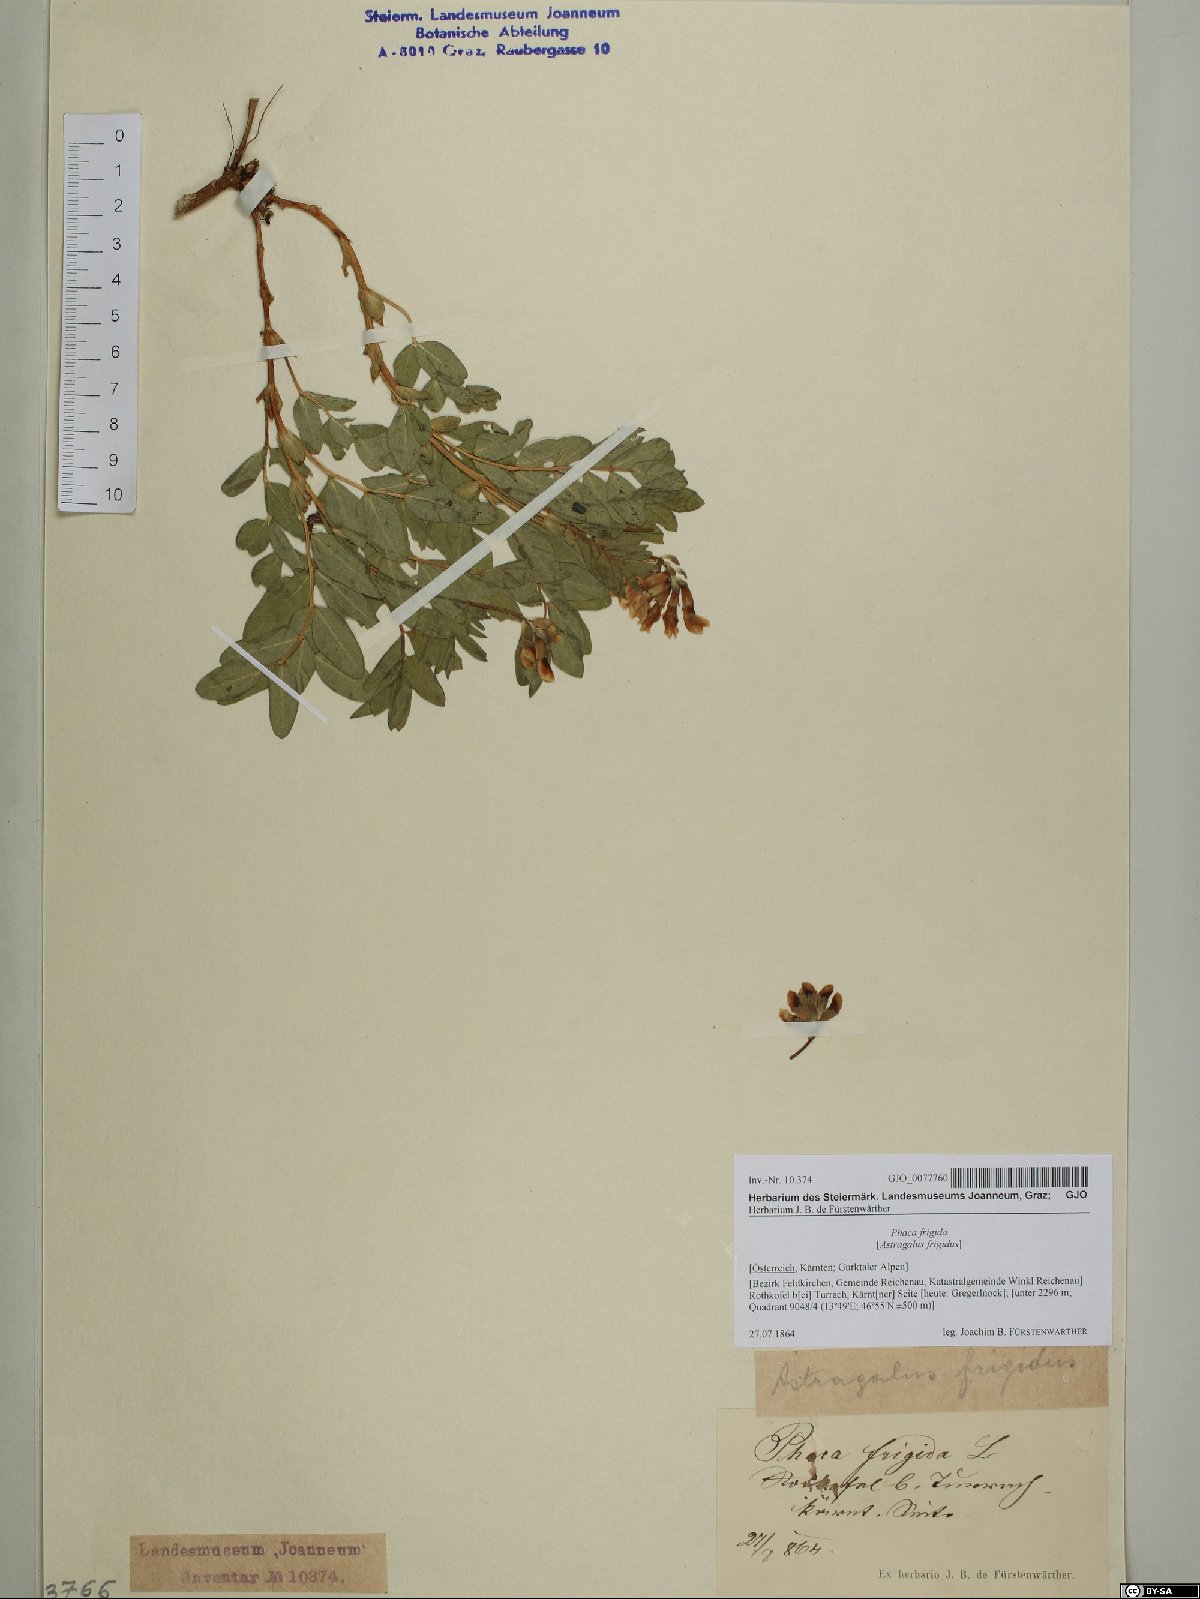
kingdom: Plantae
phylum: Tracheophyta
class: Magnoliopsida
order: Fabales
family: Fabaceae
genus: Astragalus
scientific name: Astragalus frigidus
